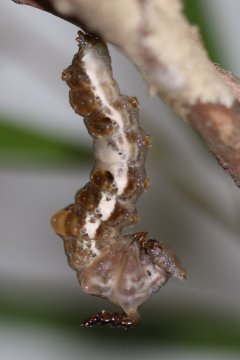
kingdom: Animalia
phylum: Arthropoda
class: Insecta
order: Lepidoptera
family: Nymphalidae
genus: Limenitis
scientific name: Limenitis arthemis
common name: Red-spotted Admiral
